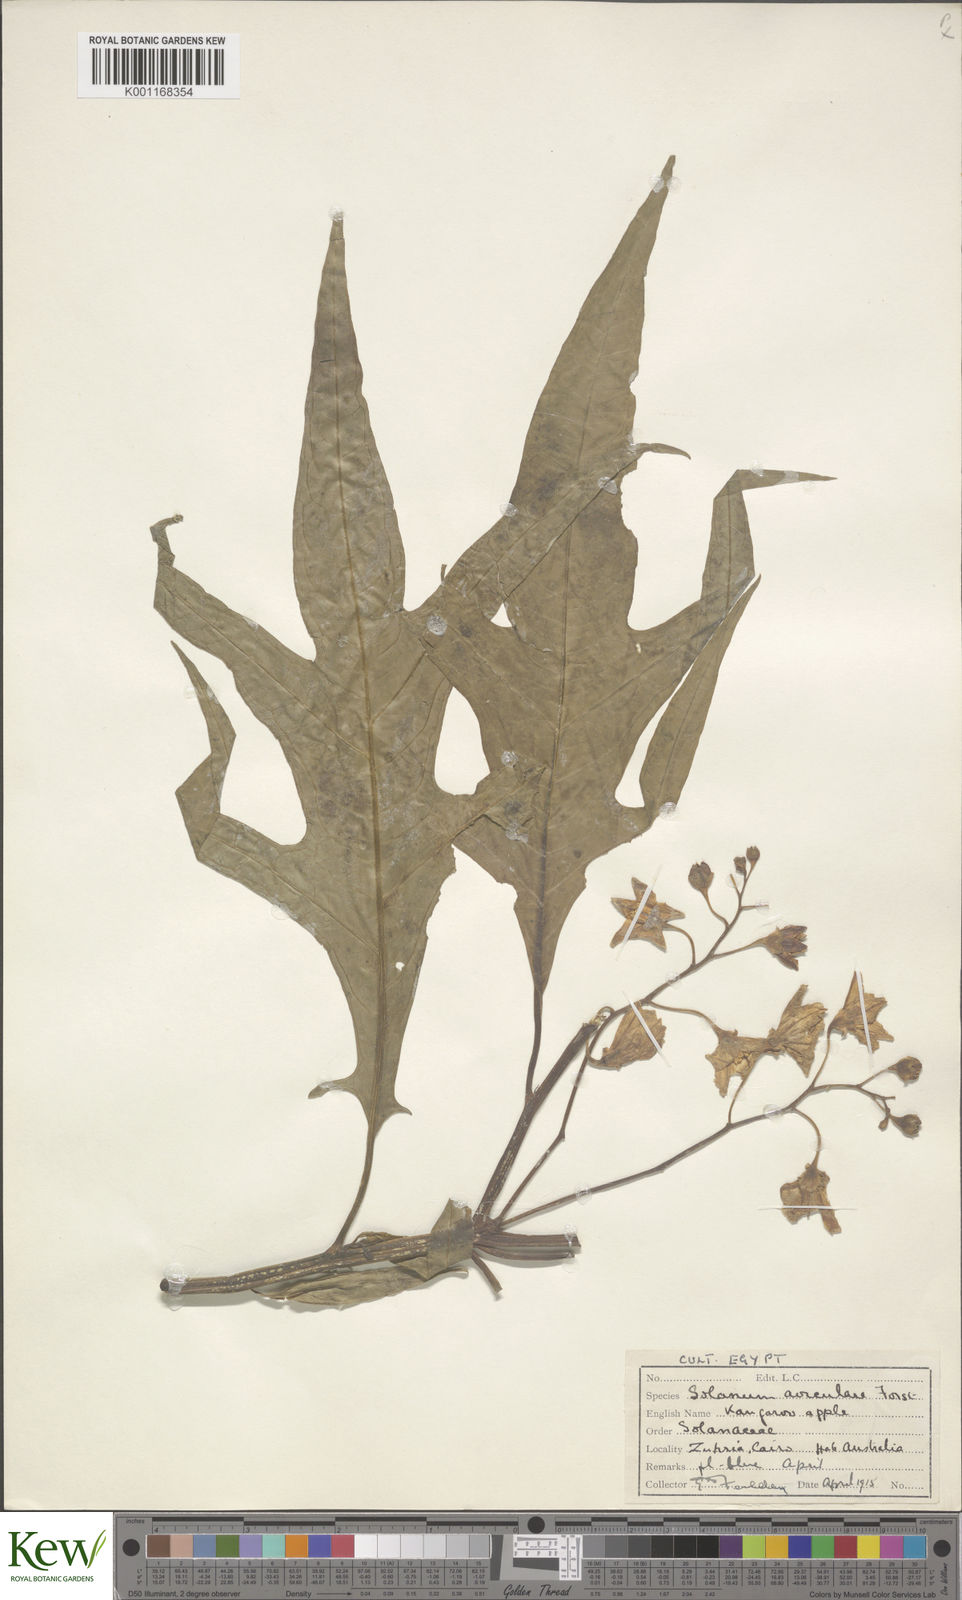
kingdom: Plantae
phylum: Tracheophyta
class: Magnoliopsida
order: Solanales
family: Solanaceae
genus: Solanum
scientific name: Solanum aviculare
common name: New zealand nightshade
